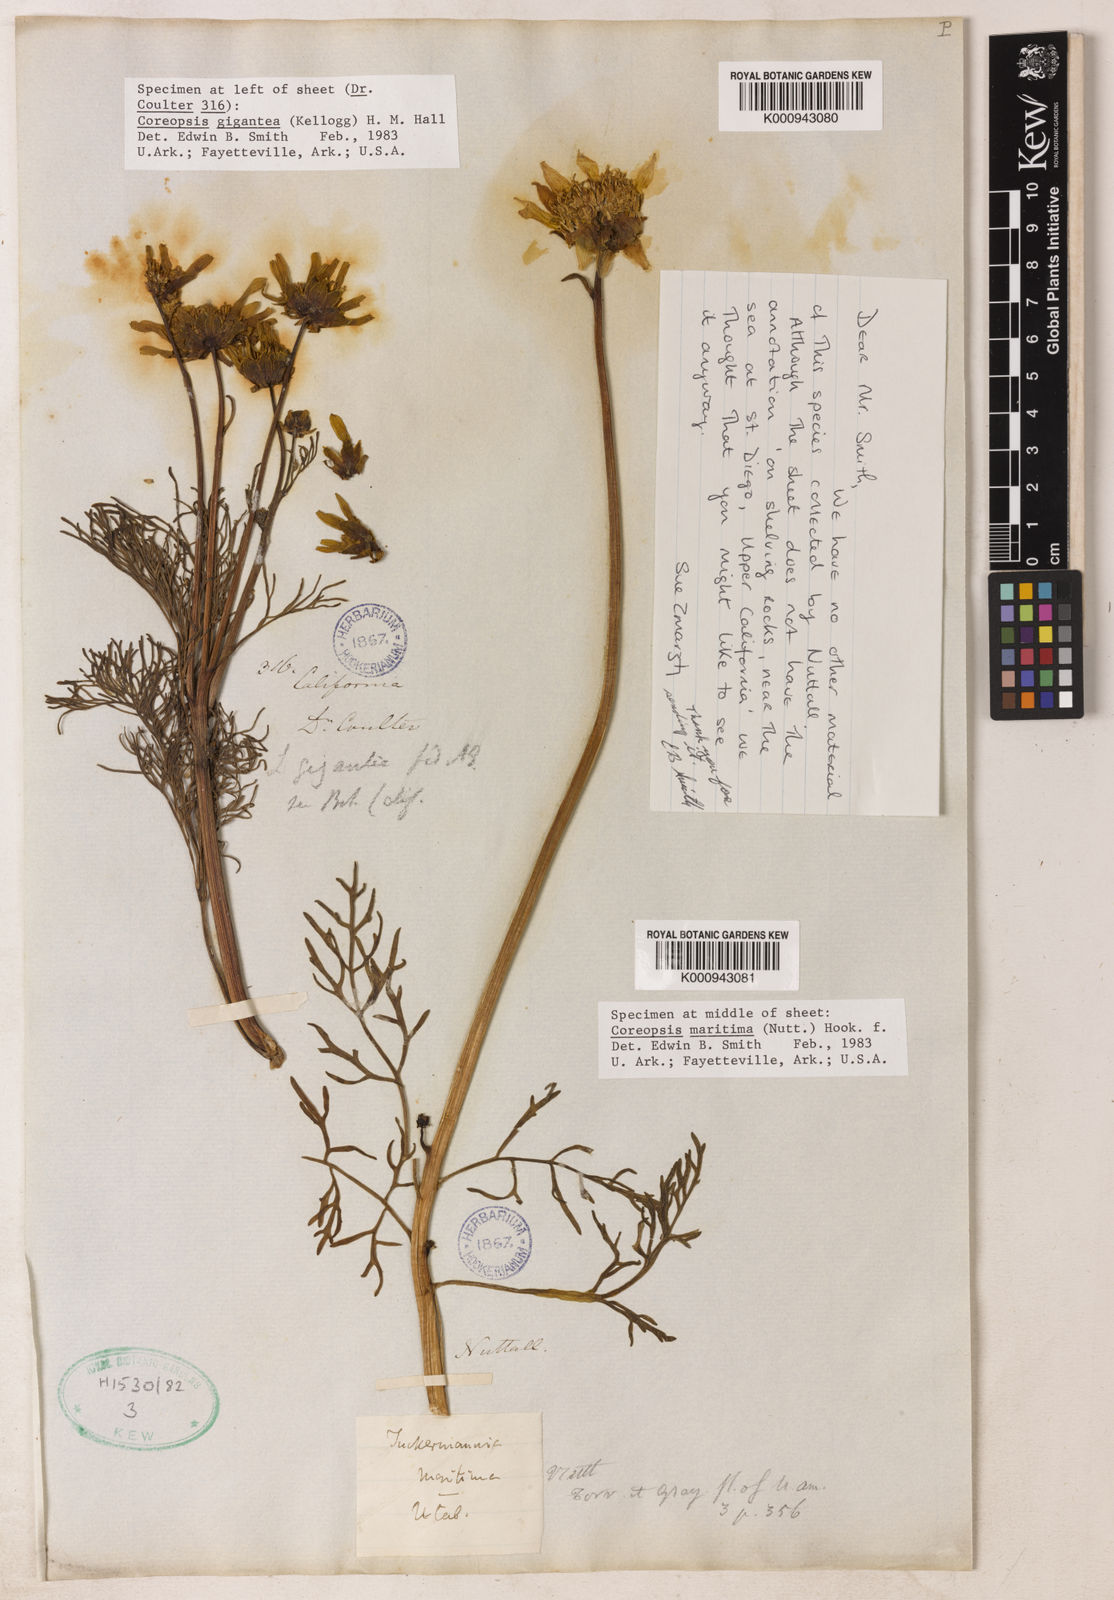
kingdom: Plantae
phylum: Tracheophyta
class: Magnoliopsida
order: Asterales
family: Asteraceae
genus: Coreopsis
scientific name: Coreopsis maritima
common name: Sea-dahlia
